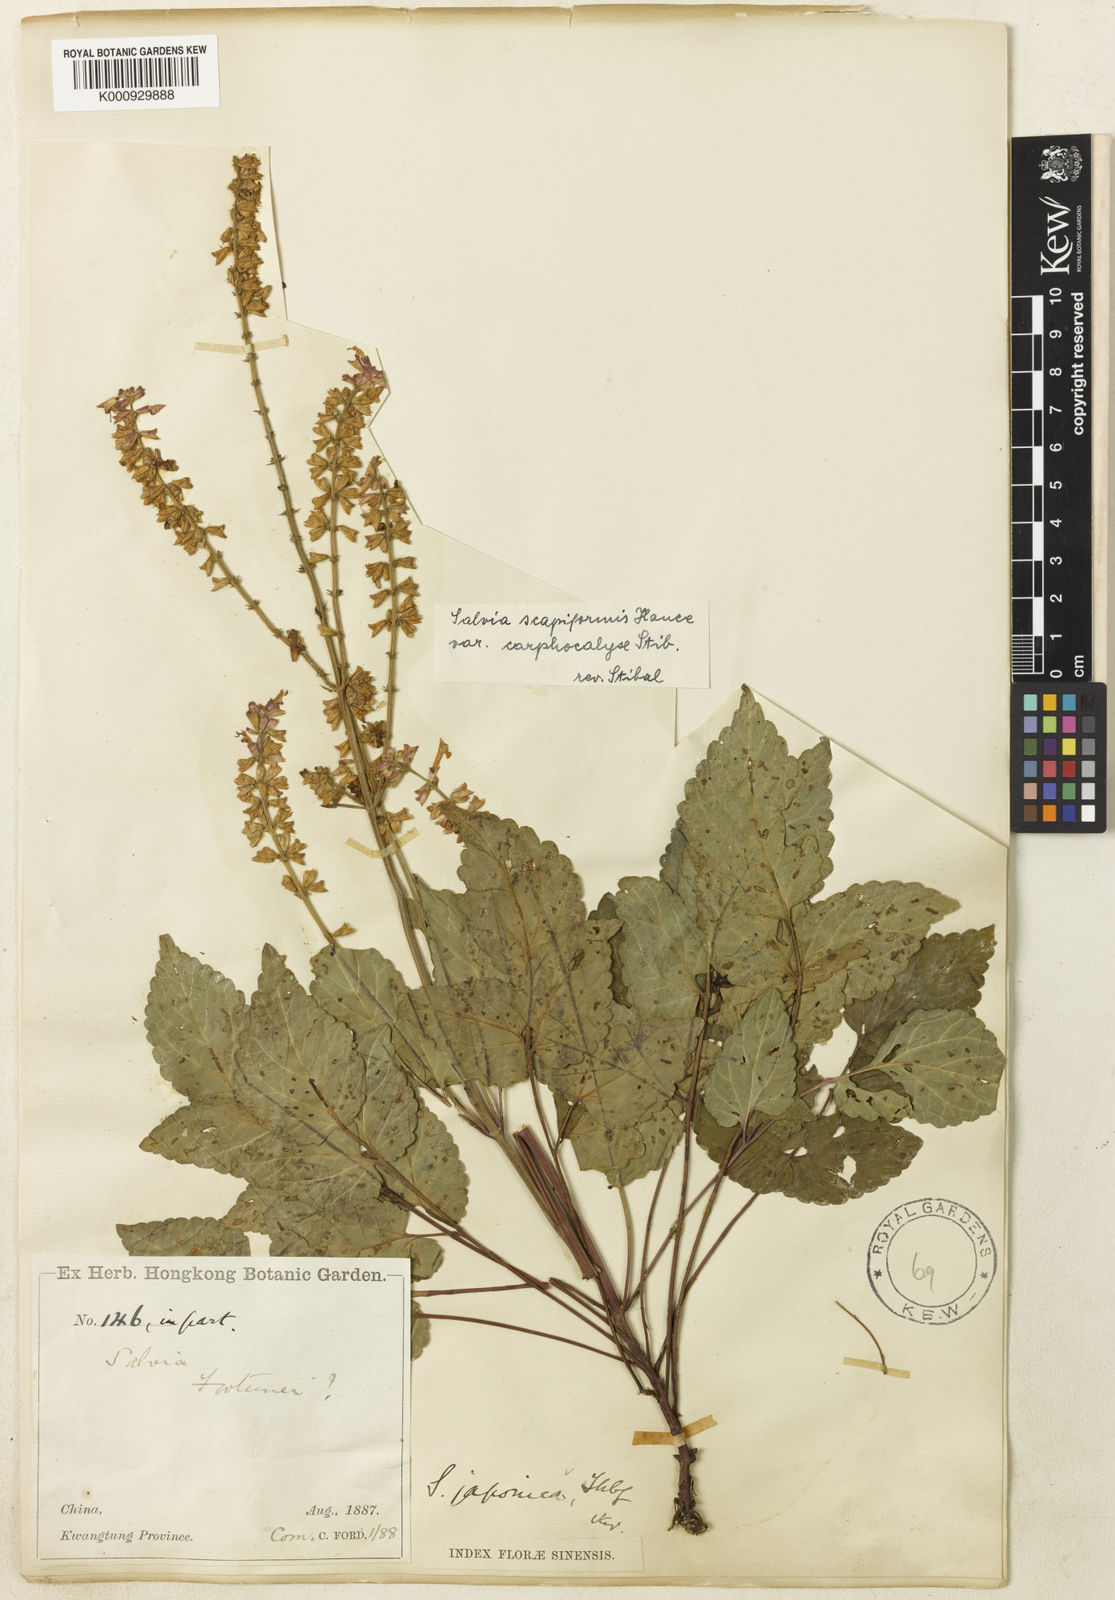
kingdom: Plantae
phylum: Tracheophyta
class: Magnoliopsida
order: Lamiales
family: Lamiaceae
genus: Salvia
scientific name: Salvia scapiformis
